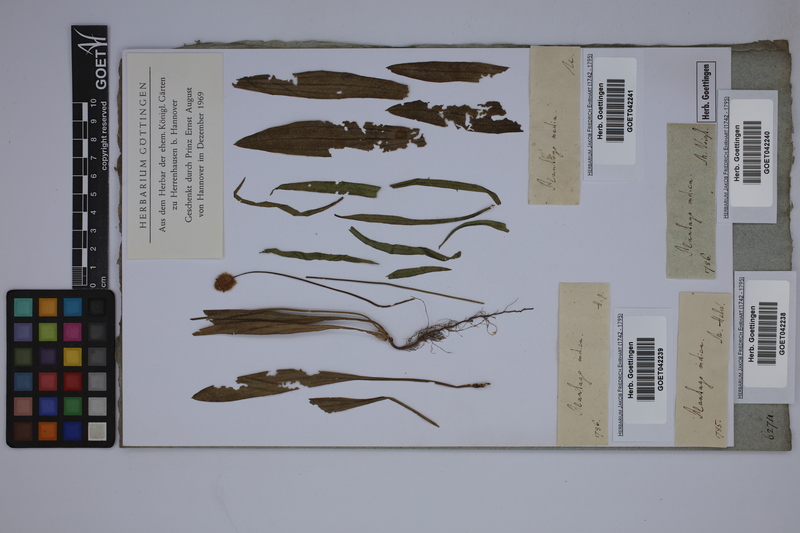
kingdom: Plantae
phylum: Tracheophyta
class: Magnoliopsida
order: Lamiales
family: Plantaginaceae
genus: Plantago
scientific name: Plantago arenaria
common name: Branched plantain
